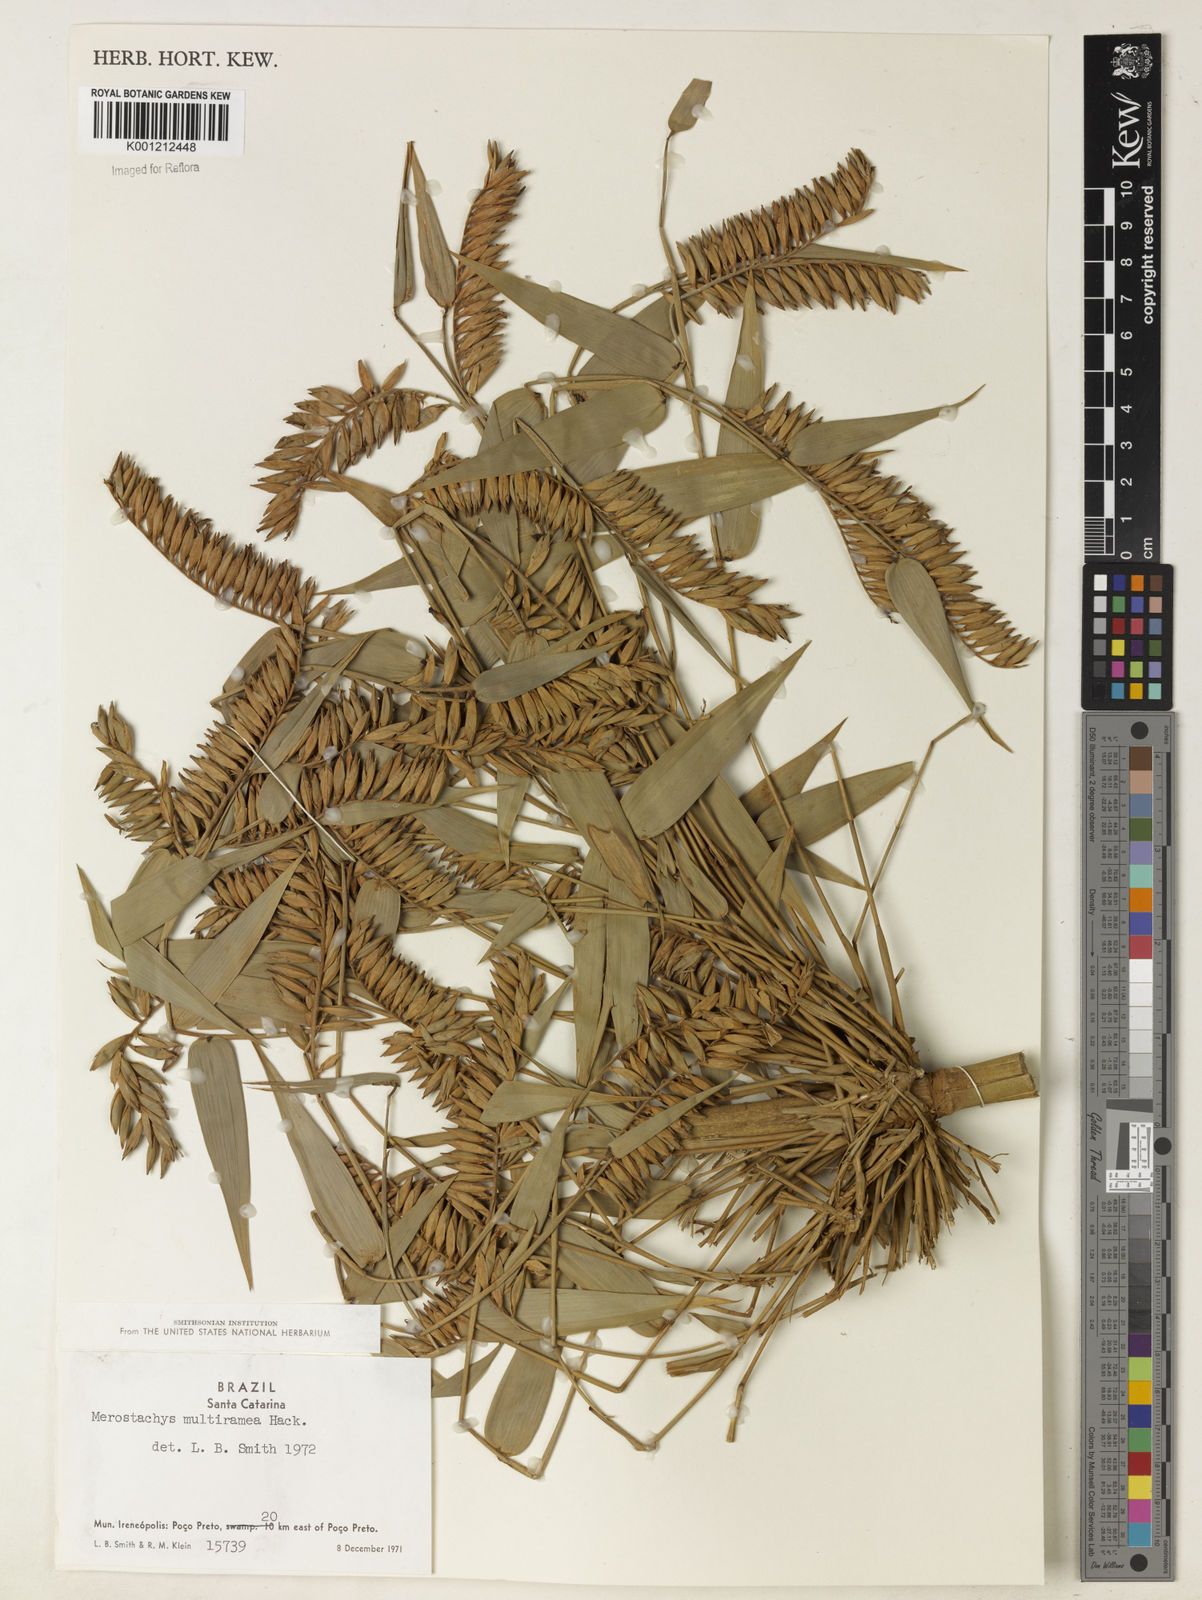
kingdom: Plantae
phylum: Tracheophyta
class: Liliopsida
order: Poales
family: Poaceae
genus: Merostachys
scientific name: Merostachys multiramea
